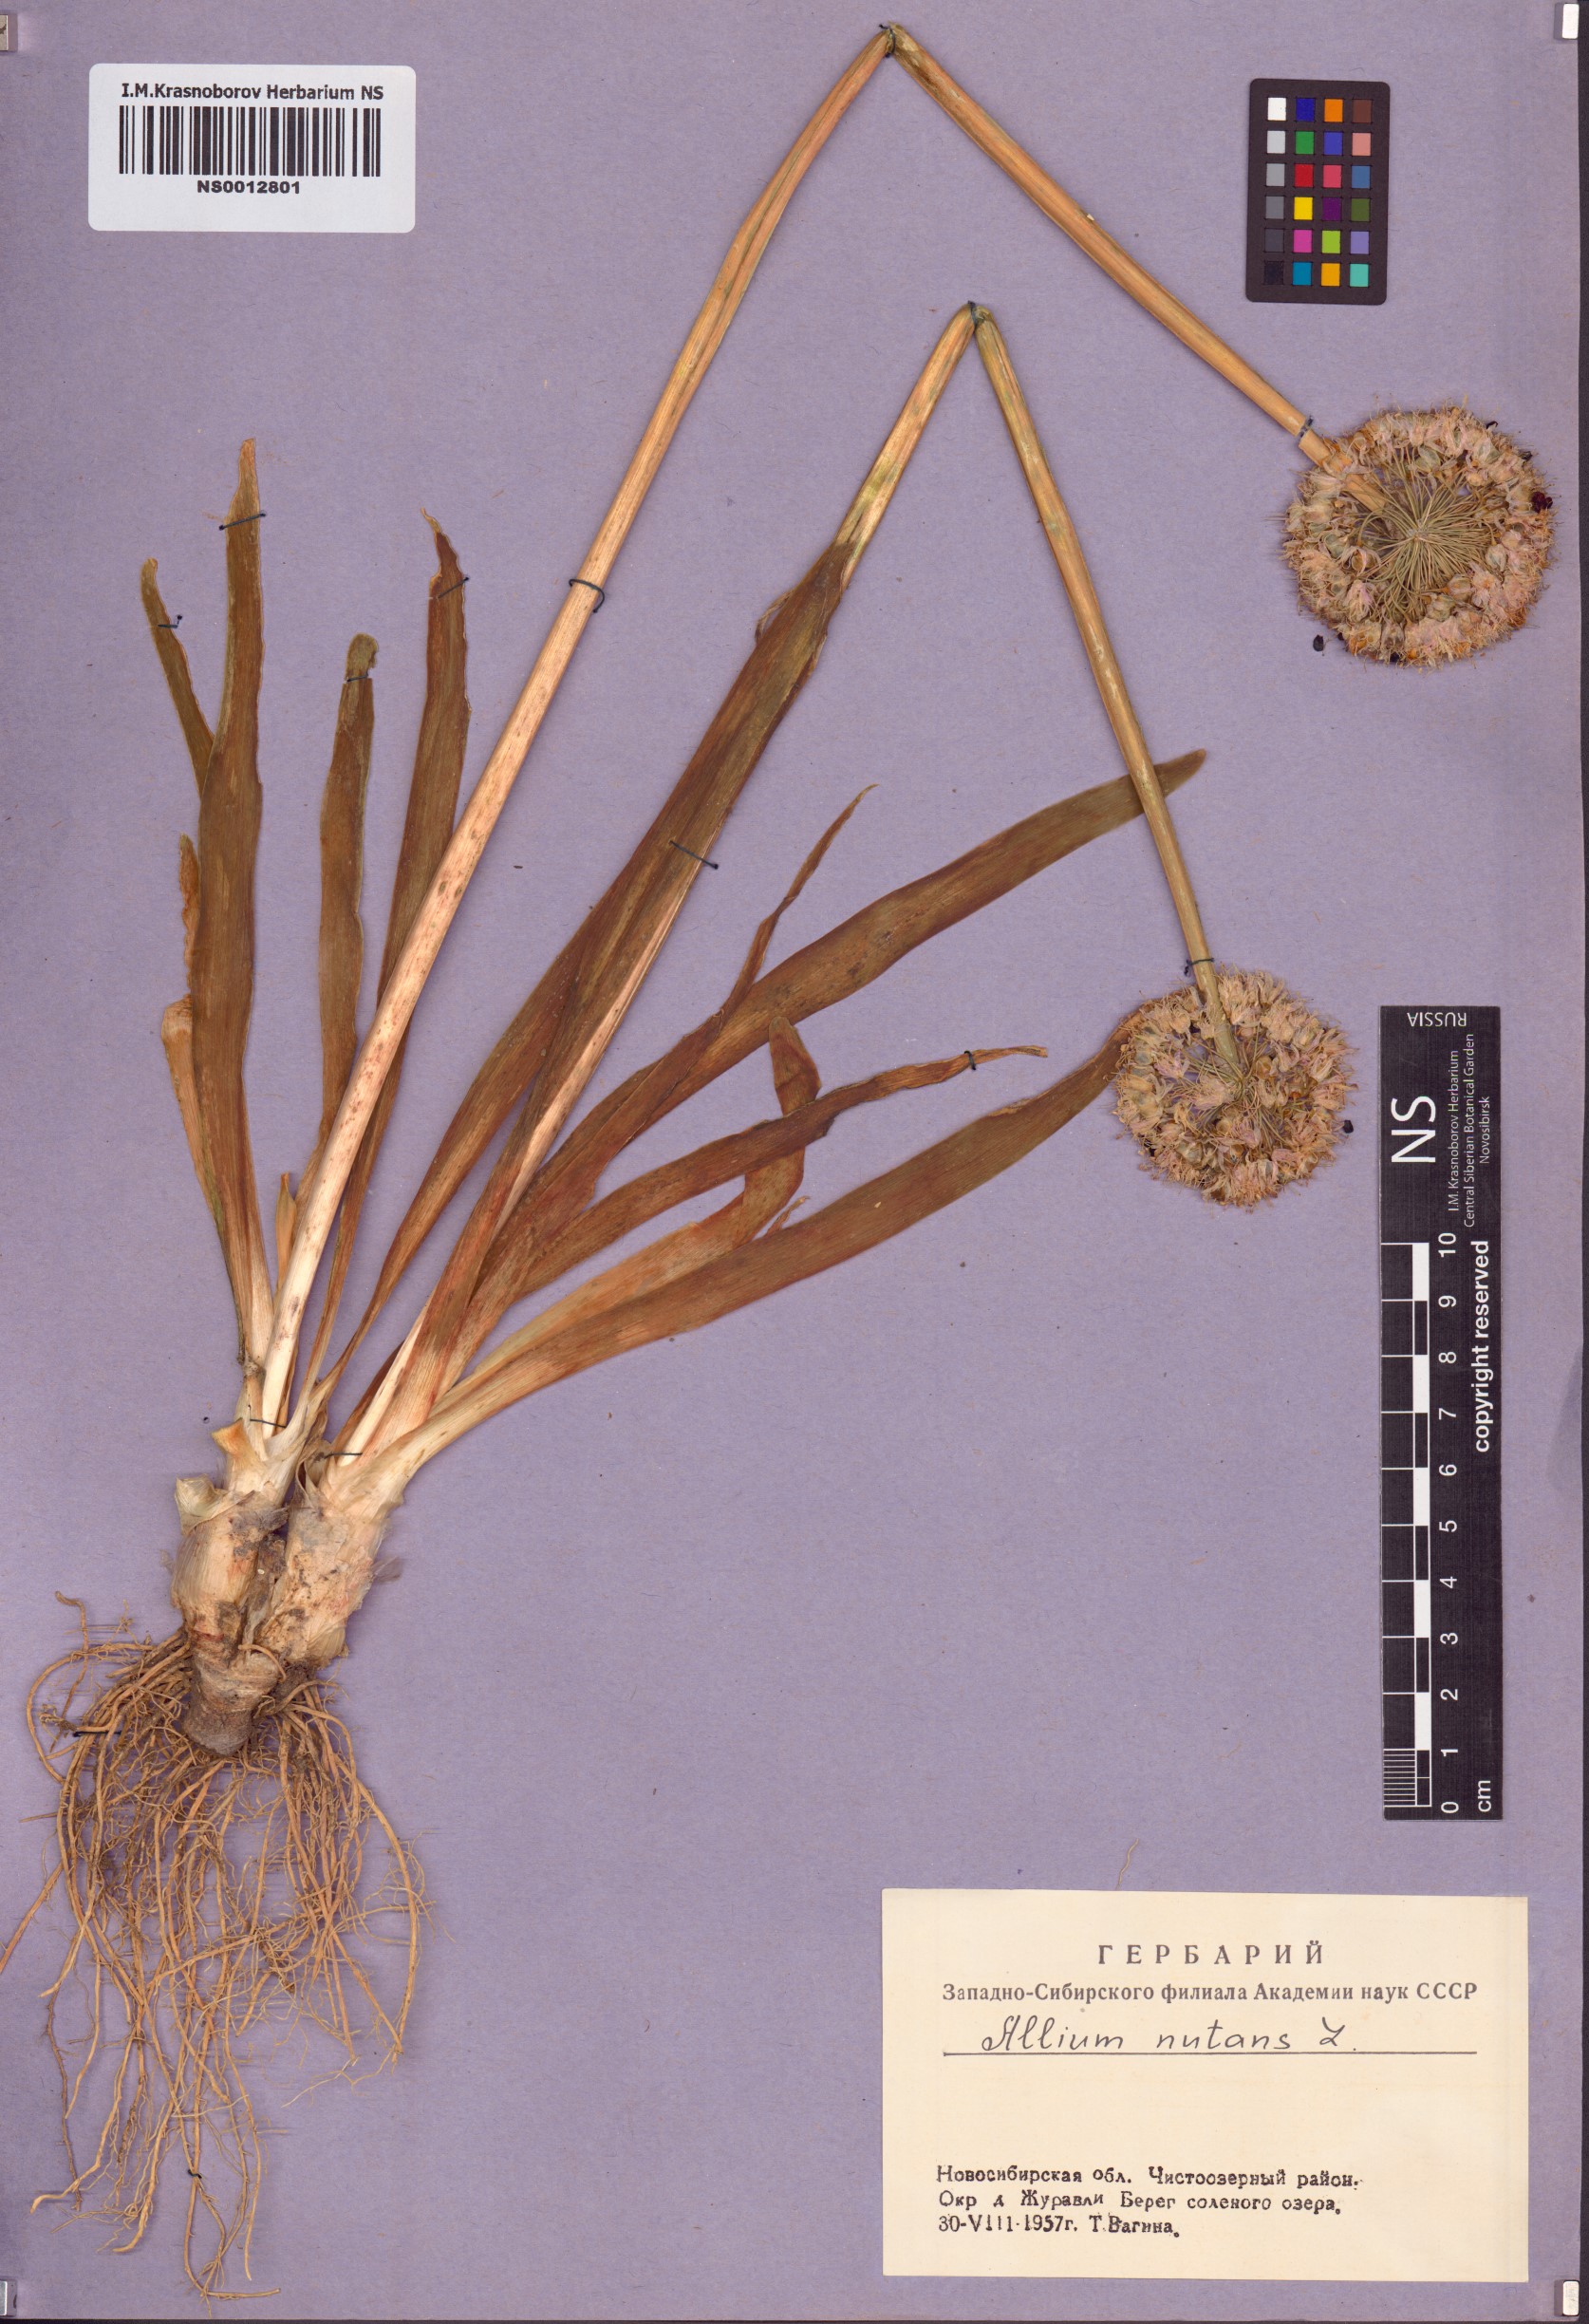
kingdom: Plantae
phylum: Tracheophyta
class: Liliopsida
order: Asparagales
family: Amaryllidaceae
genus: Allium
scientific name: Allium nutans
